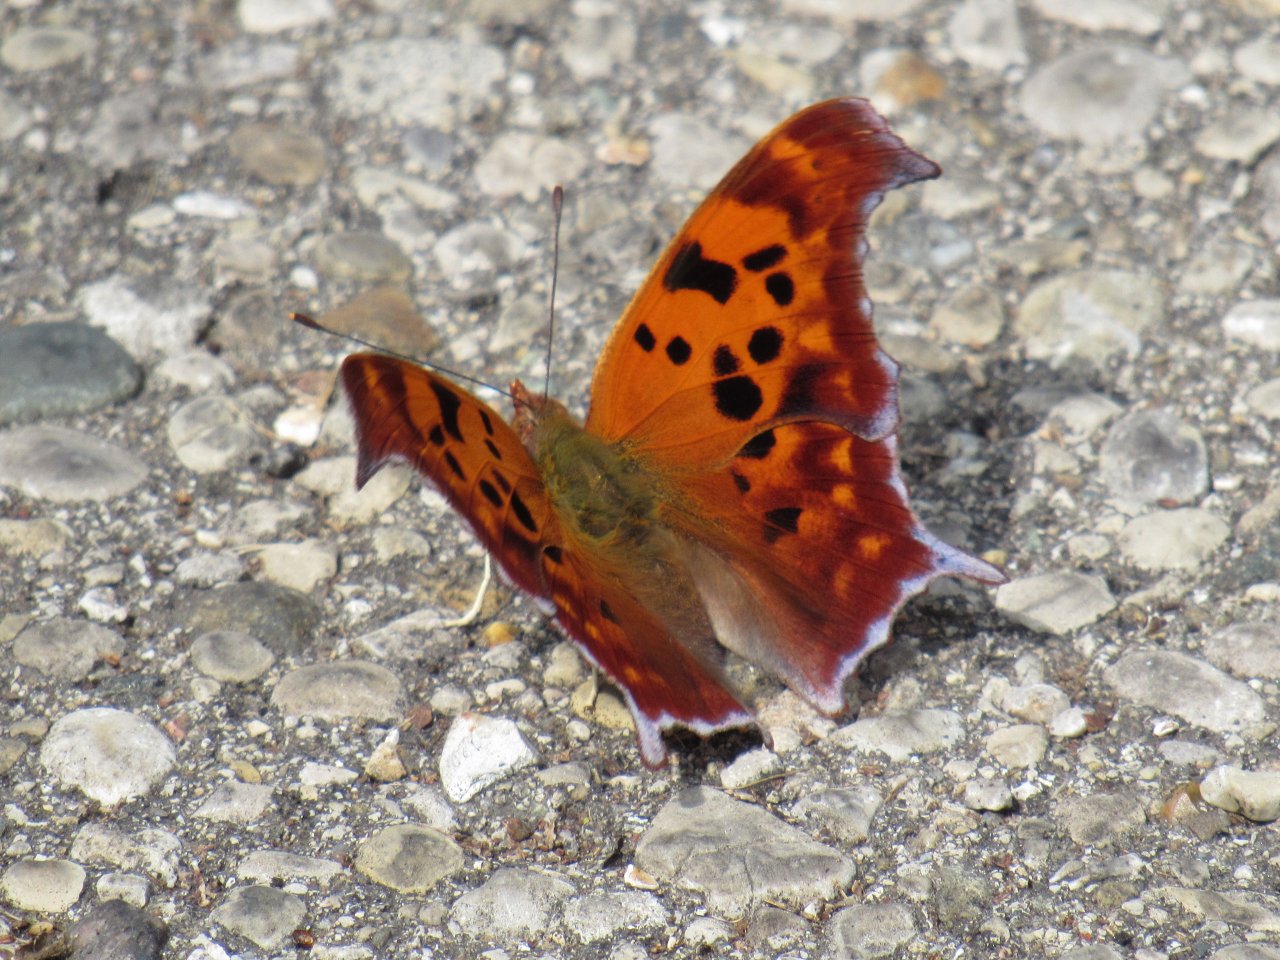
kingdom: Animalia
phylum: Arthropoda
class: Insecta
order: Lepidoptera
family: Nymphalidae
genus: Polygonia
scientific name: Polygonia interrogationis
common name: Question Mark
